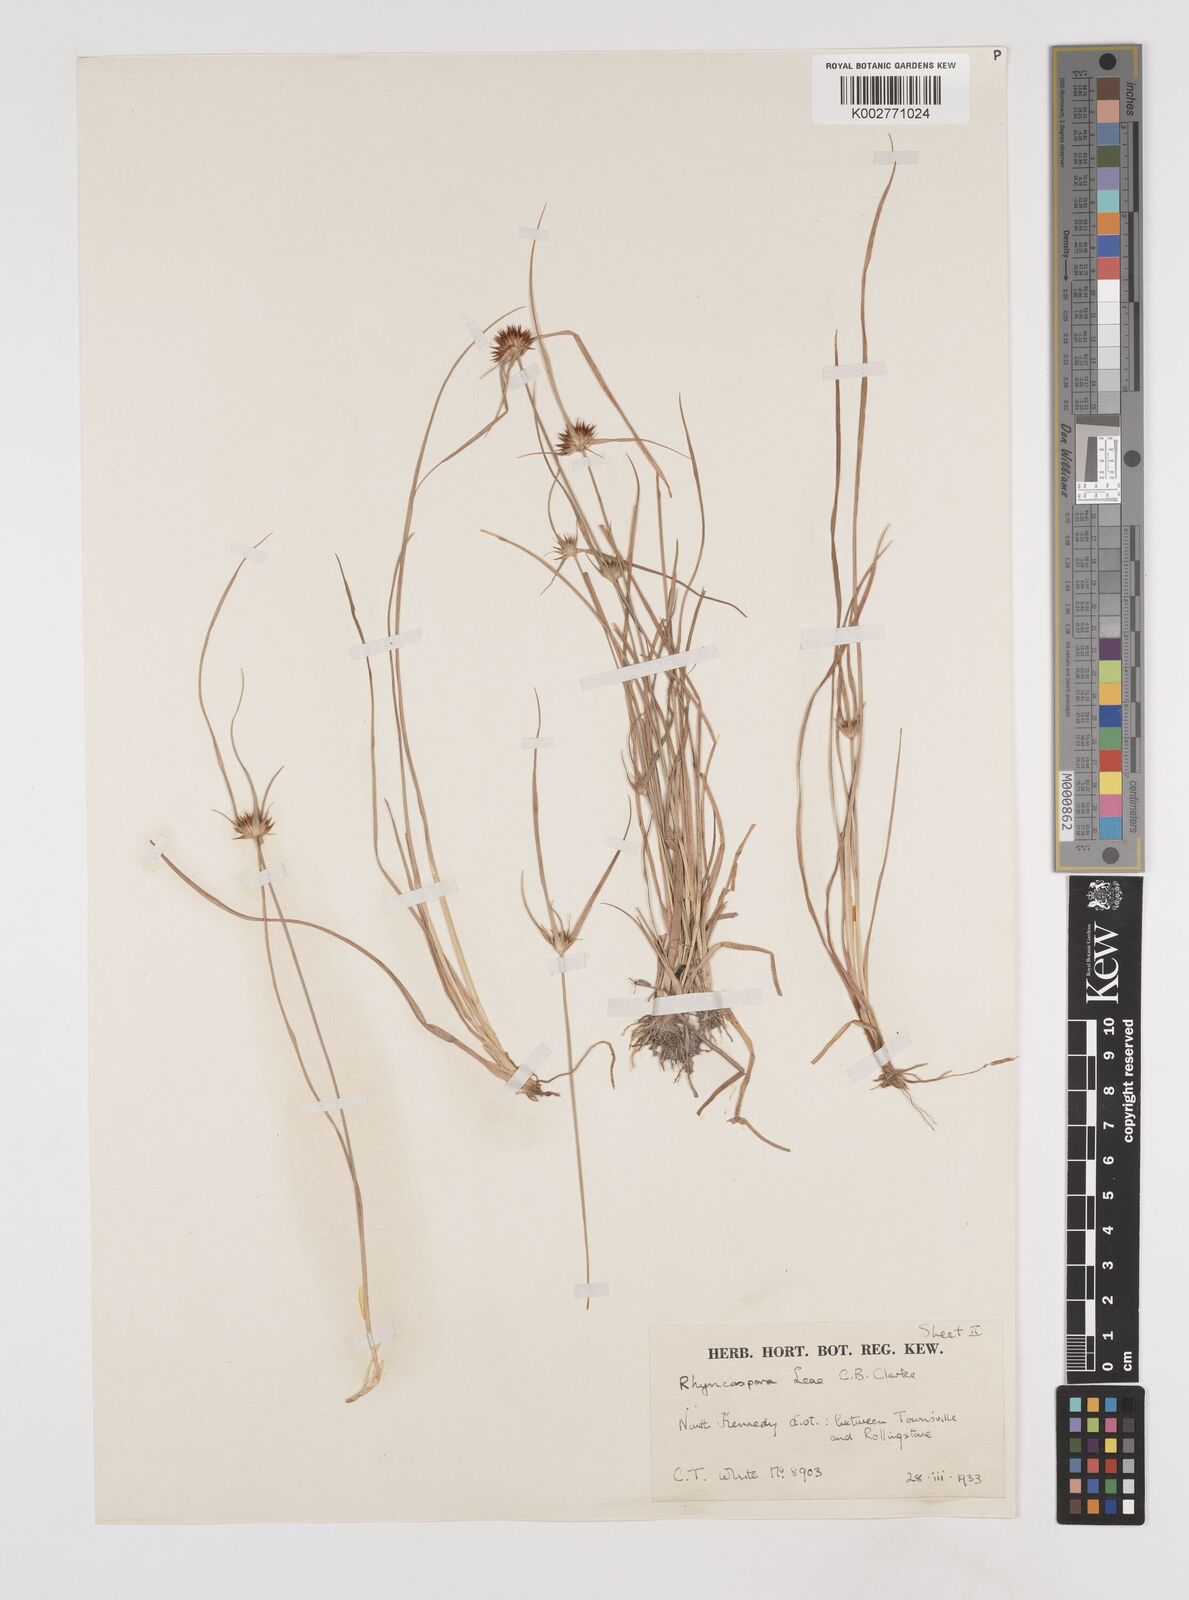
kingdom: Plantae
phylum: Tracheophyta
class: Liliopsida
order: Poales
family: Cyperaceae
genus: Rhynchospora
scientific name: Rhynchospora leae
